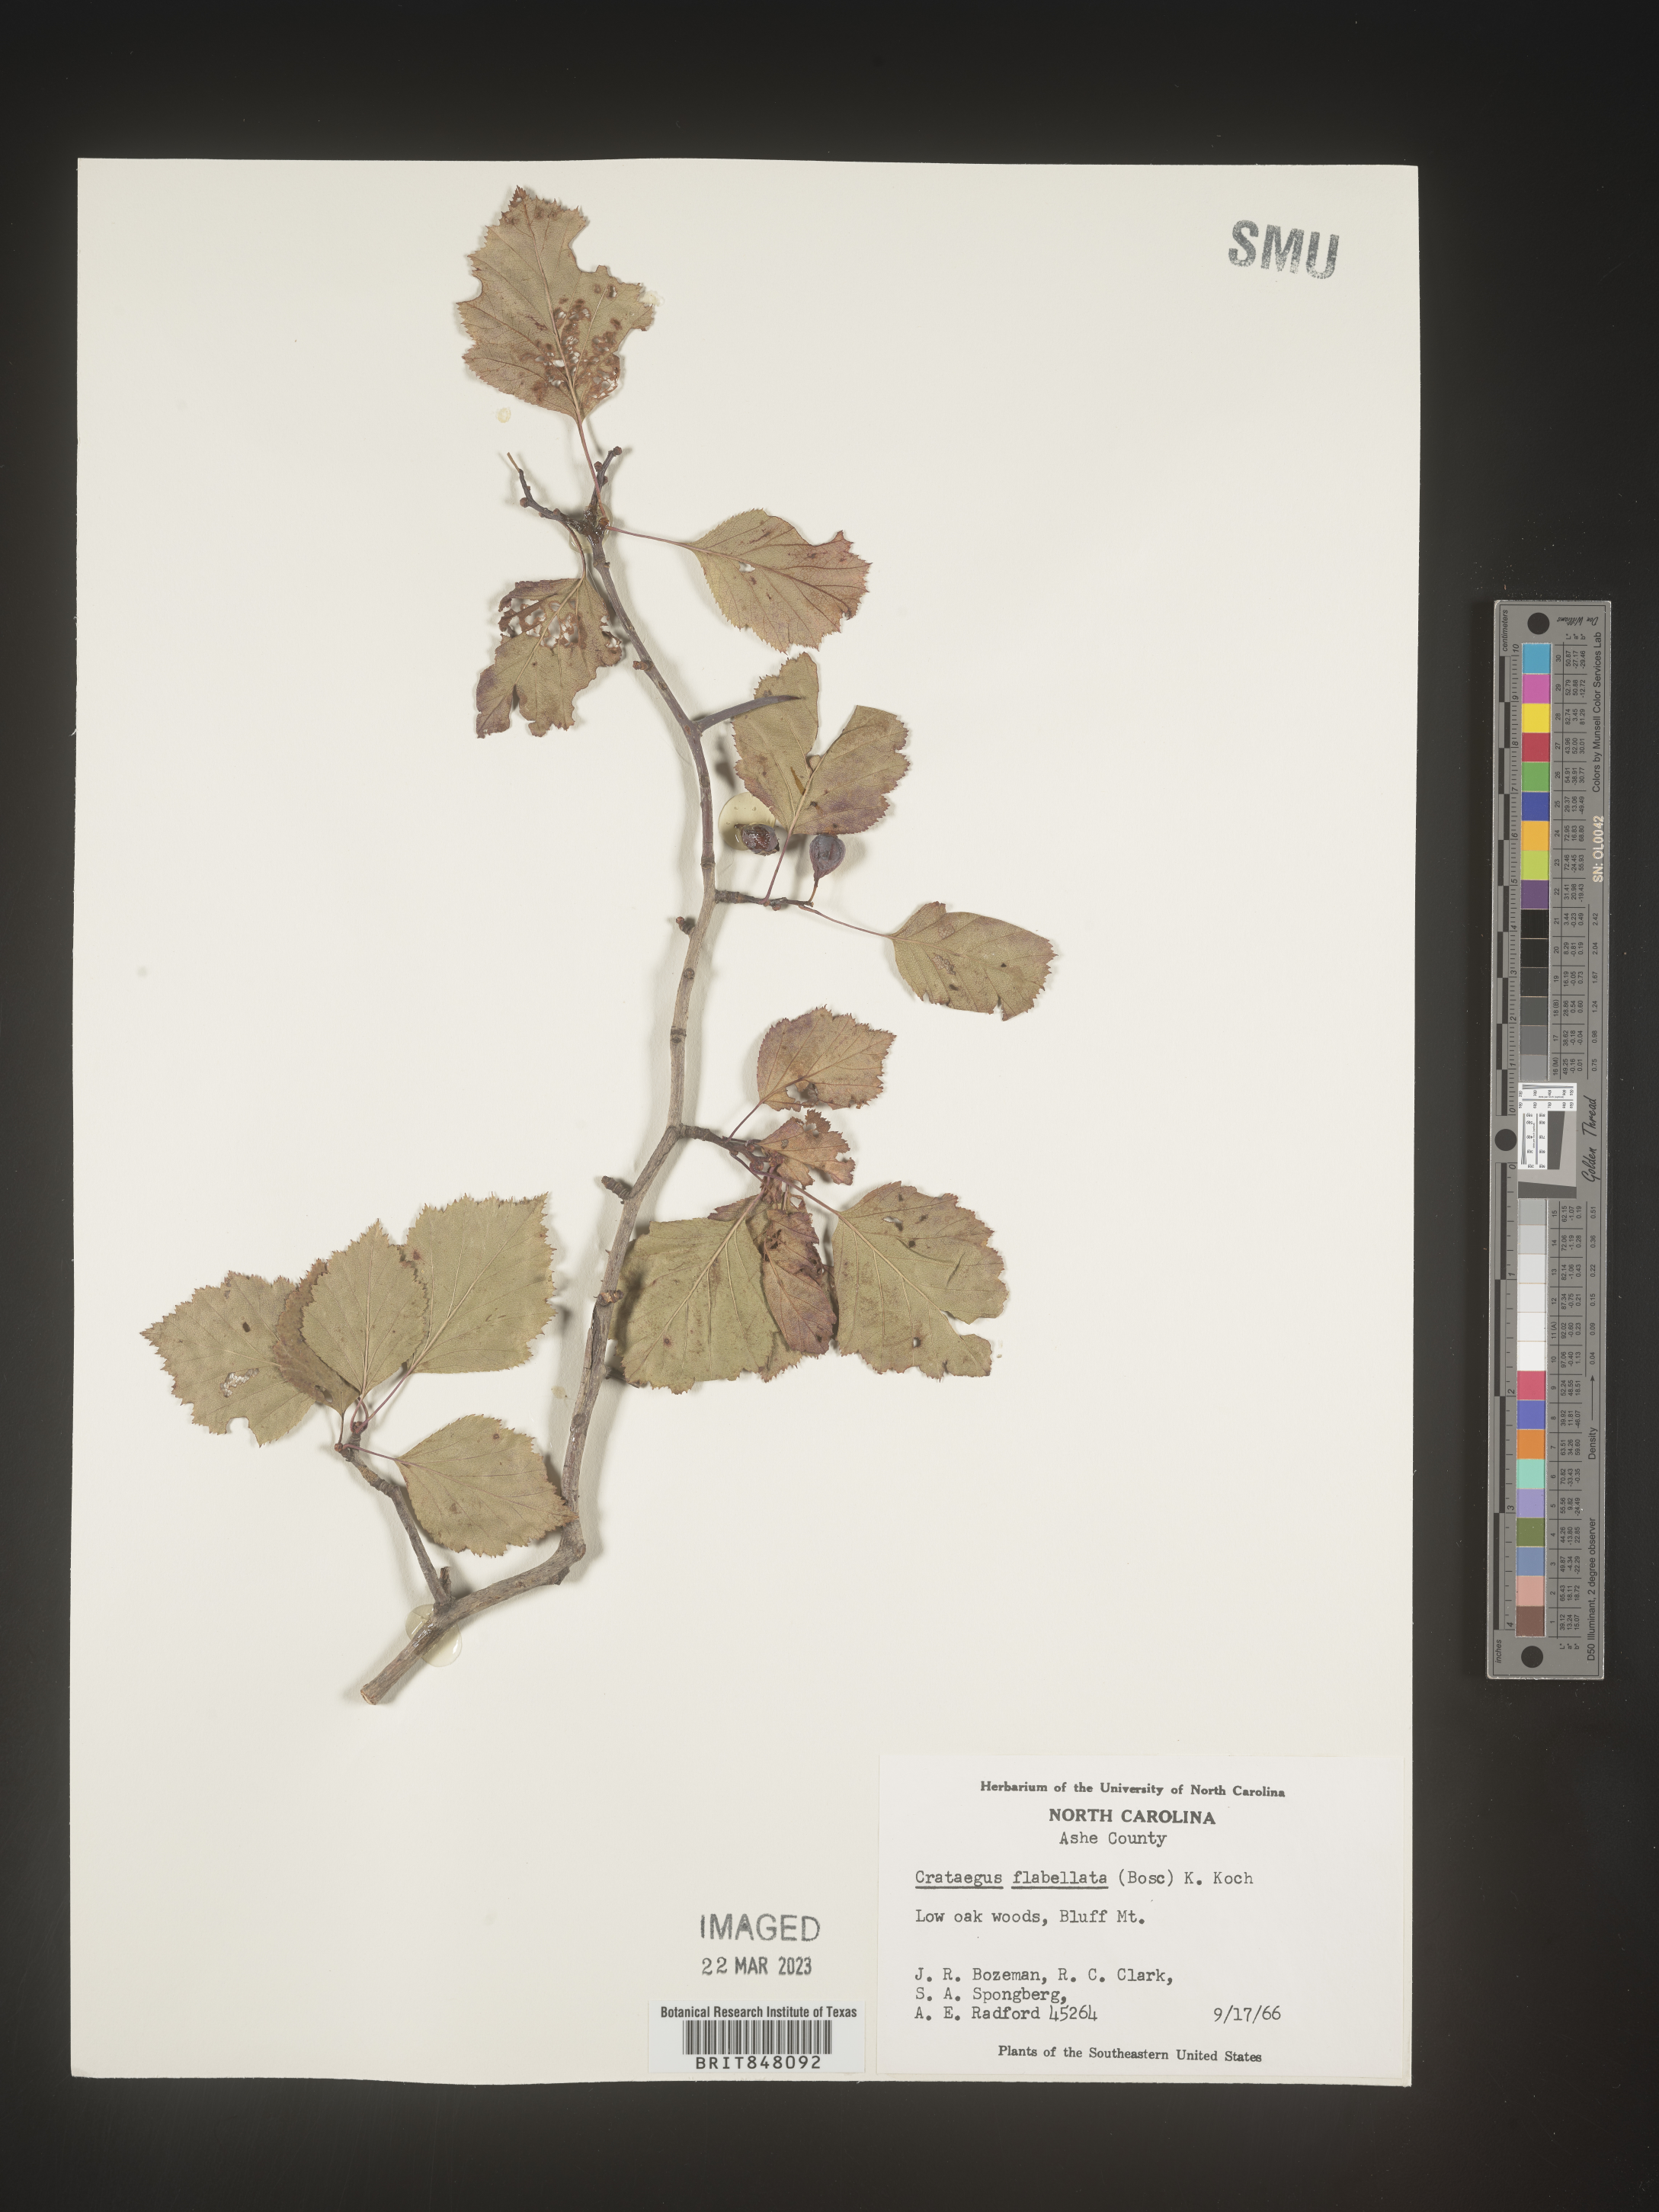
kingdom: Plantae
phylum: Tracheophyta
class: Magnoliopsida
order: Rosales
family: Rosaceae
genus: Crataegus
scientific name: Crataegus
